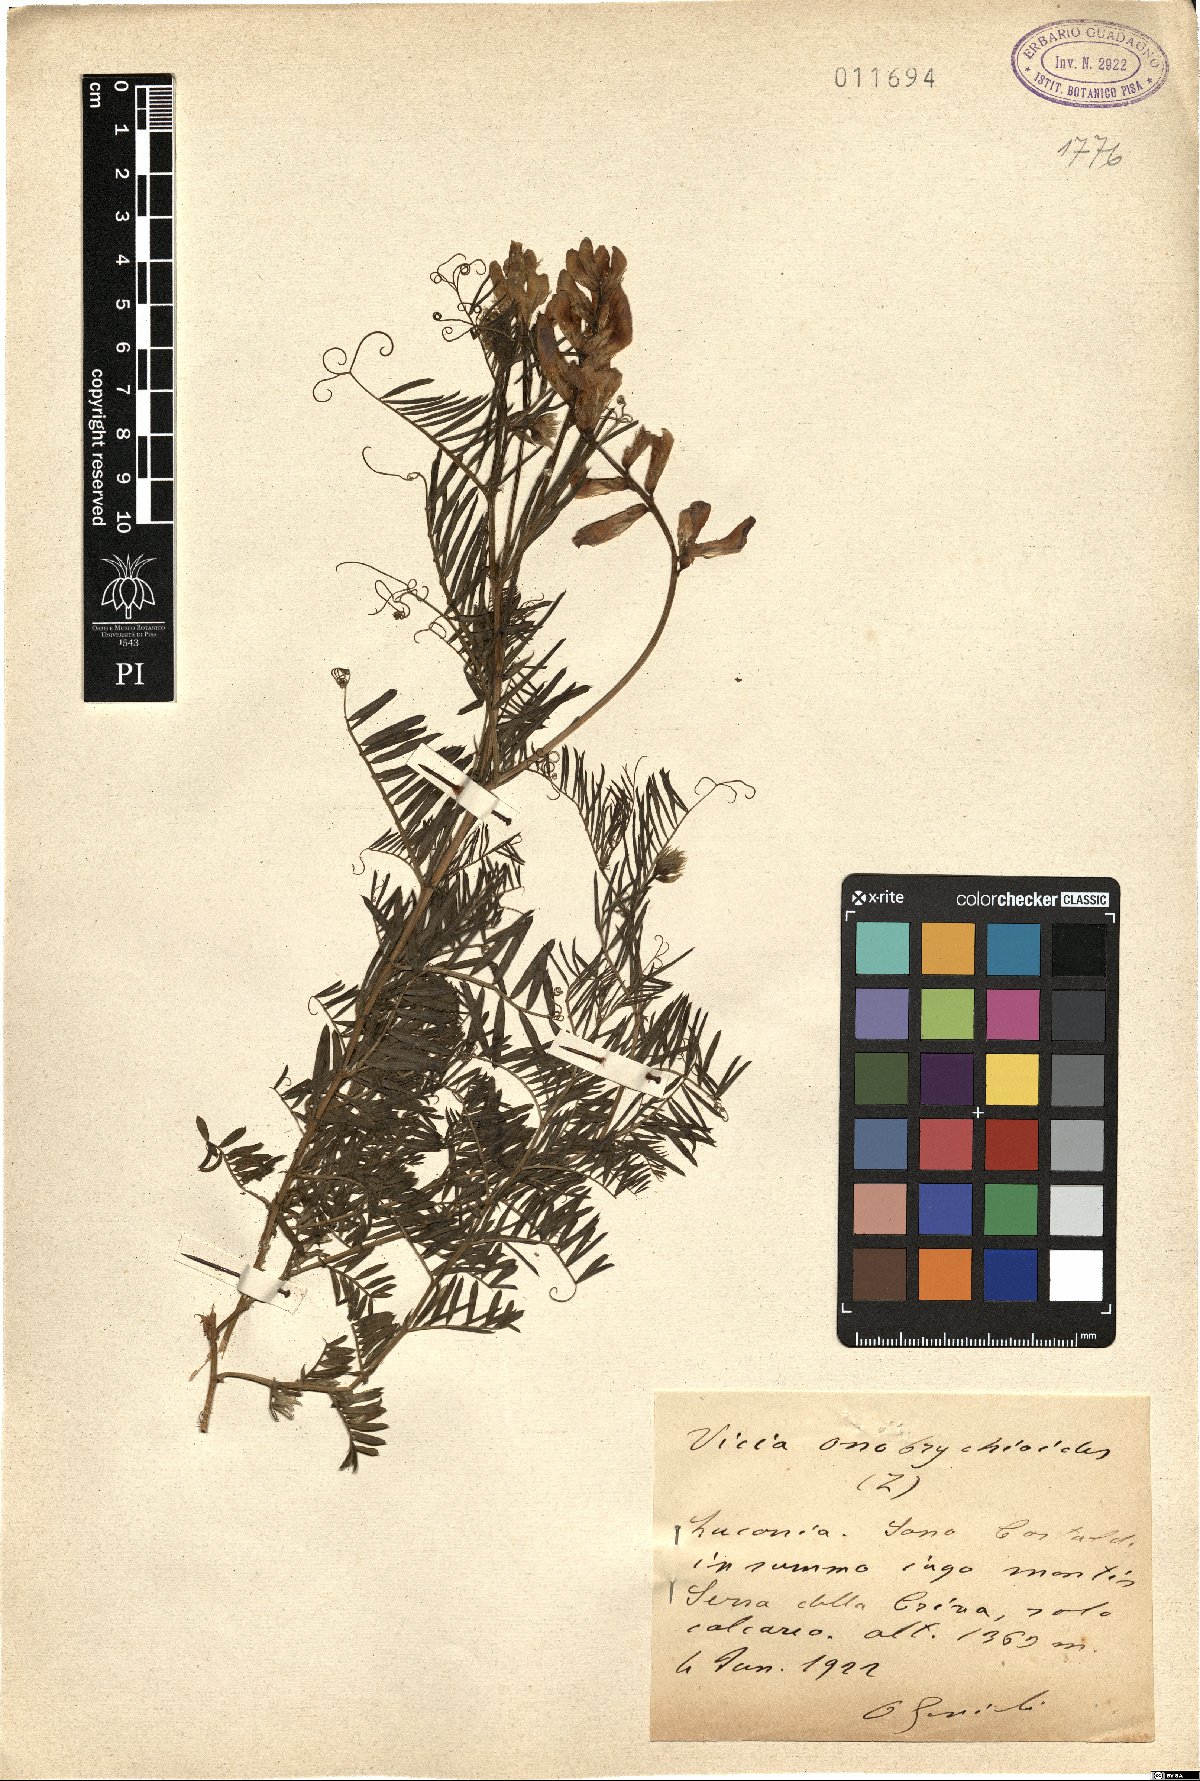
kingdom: Plantae
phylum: Tracheophyta
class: Magnoliopsida
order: Fabales
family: Fabaceae
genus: Vicia
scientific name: Vicia onobrychioides
